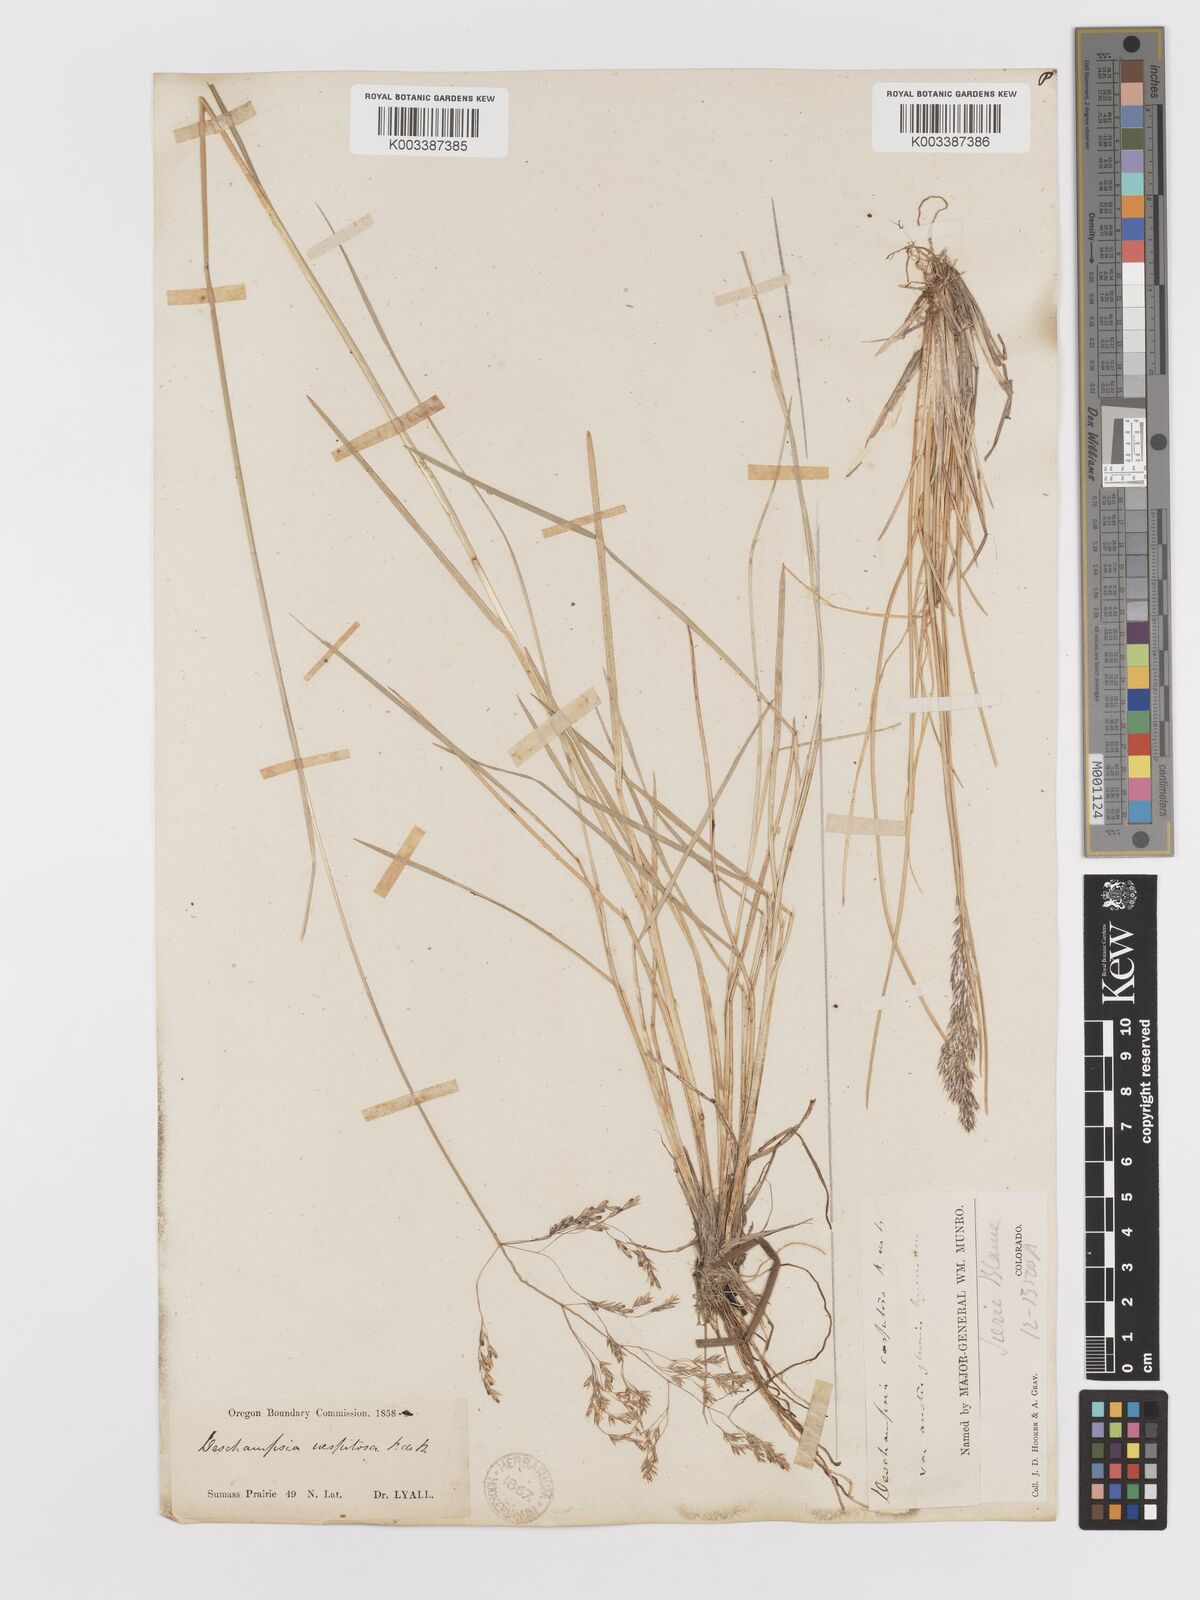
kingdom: Plantae
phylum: Tracheophyta
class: Liliopsida
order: Poales
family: Poaceae
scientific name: Poaceae
